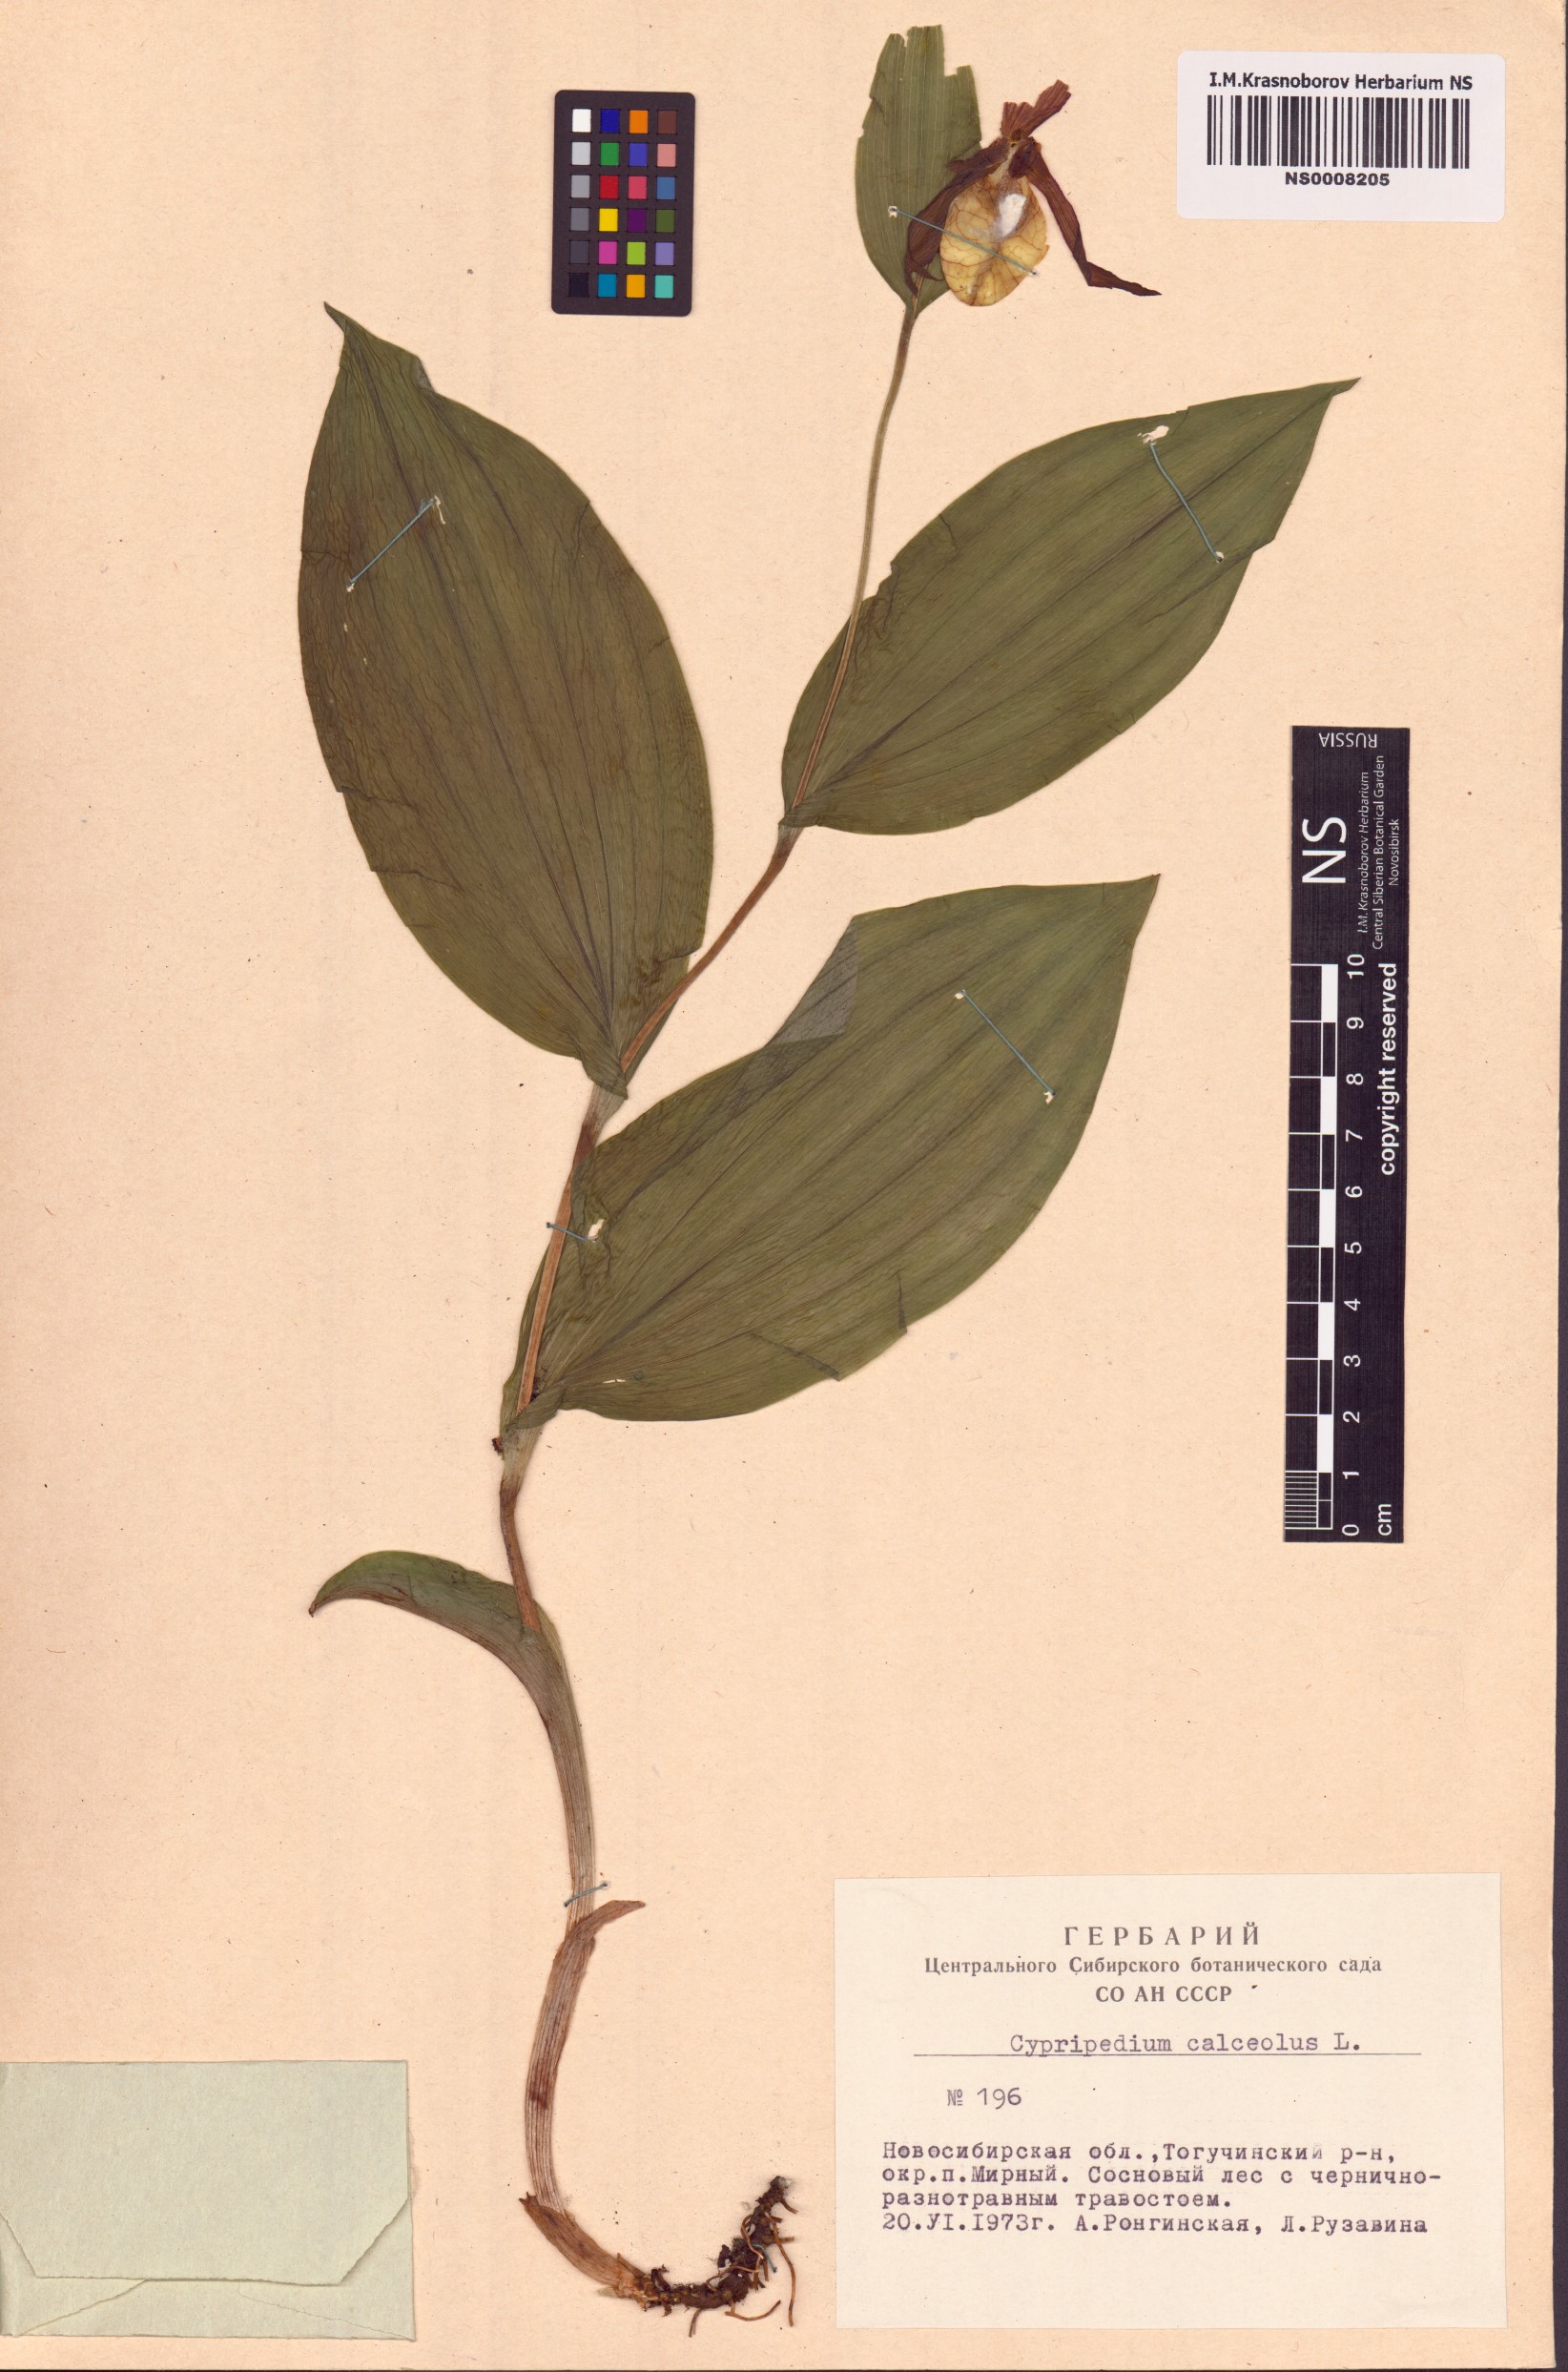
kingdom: Plantae
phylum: Tracheophyta
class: Liliopsida
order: Asparagales
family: Orchidaceae
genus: Cypripedium
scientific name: Cypripedium calceolus
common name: Lady's-slipper
